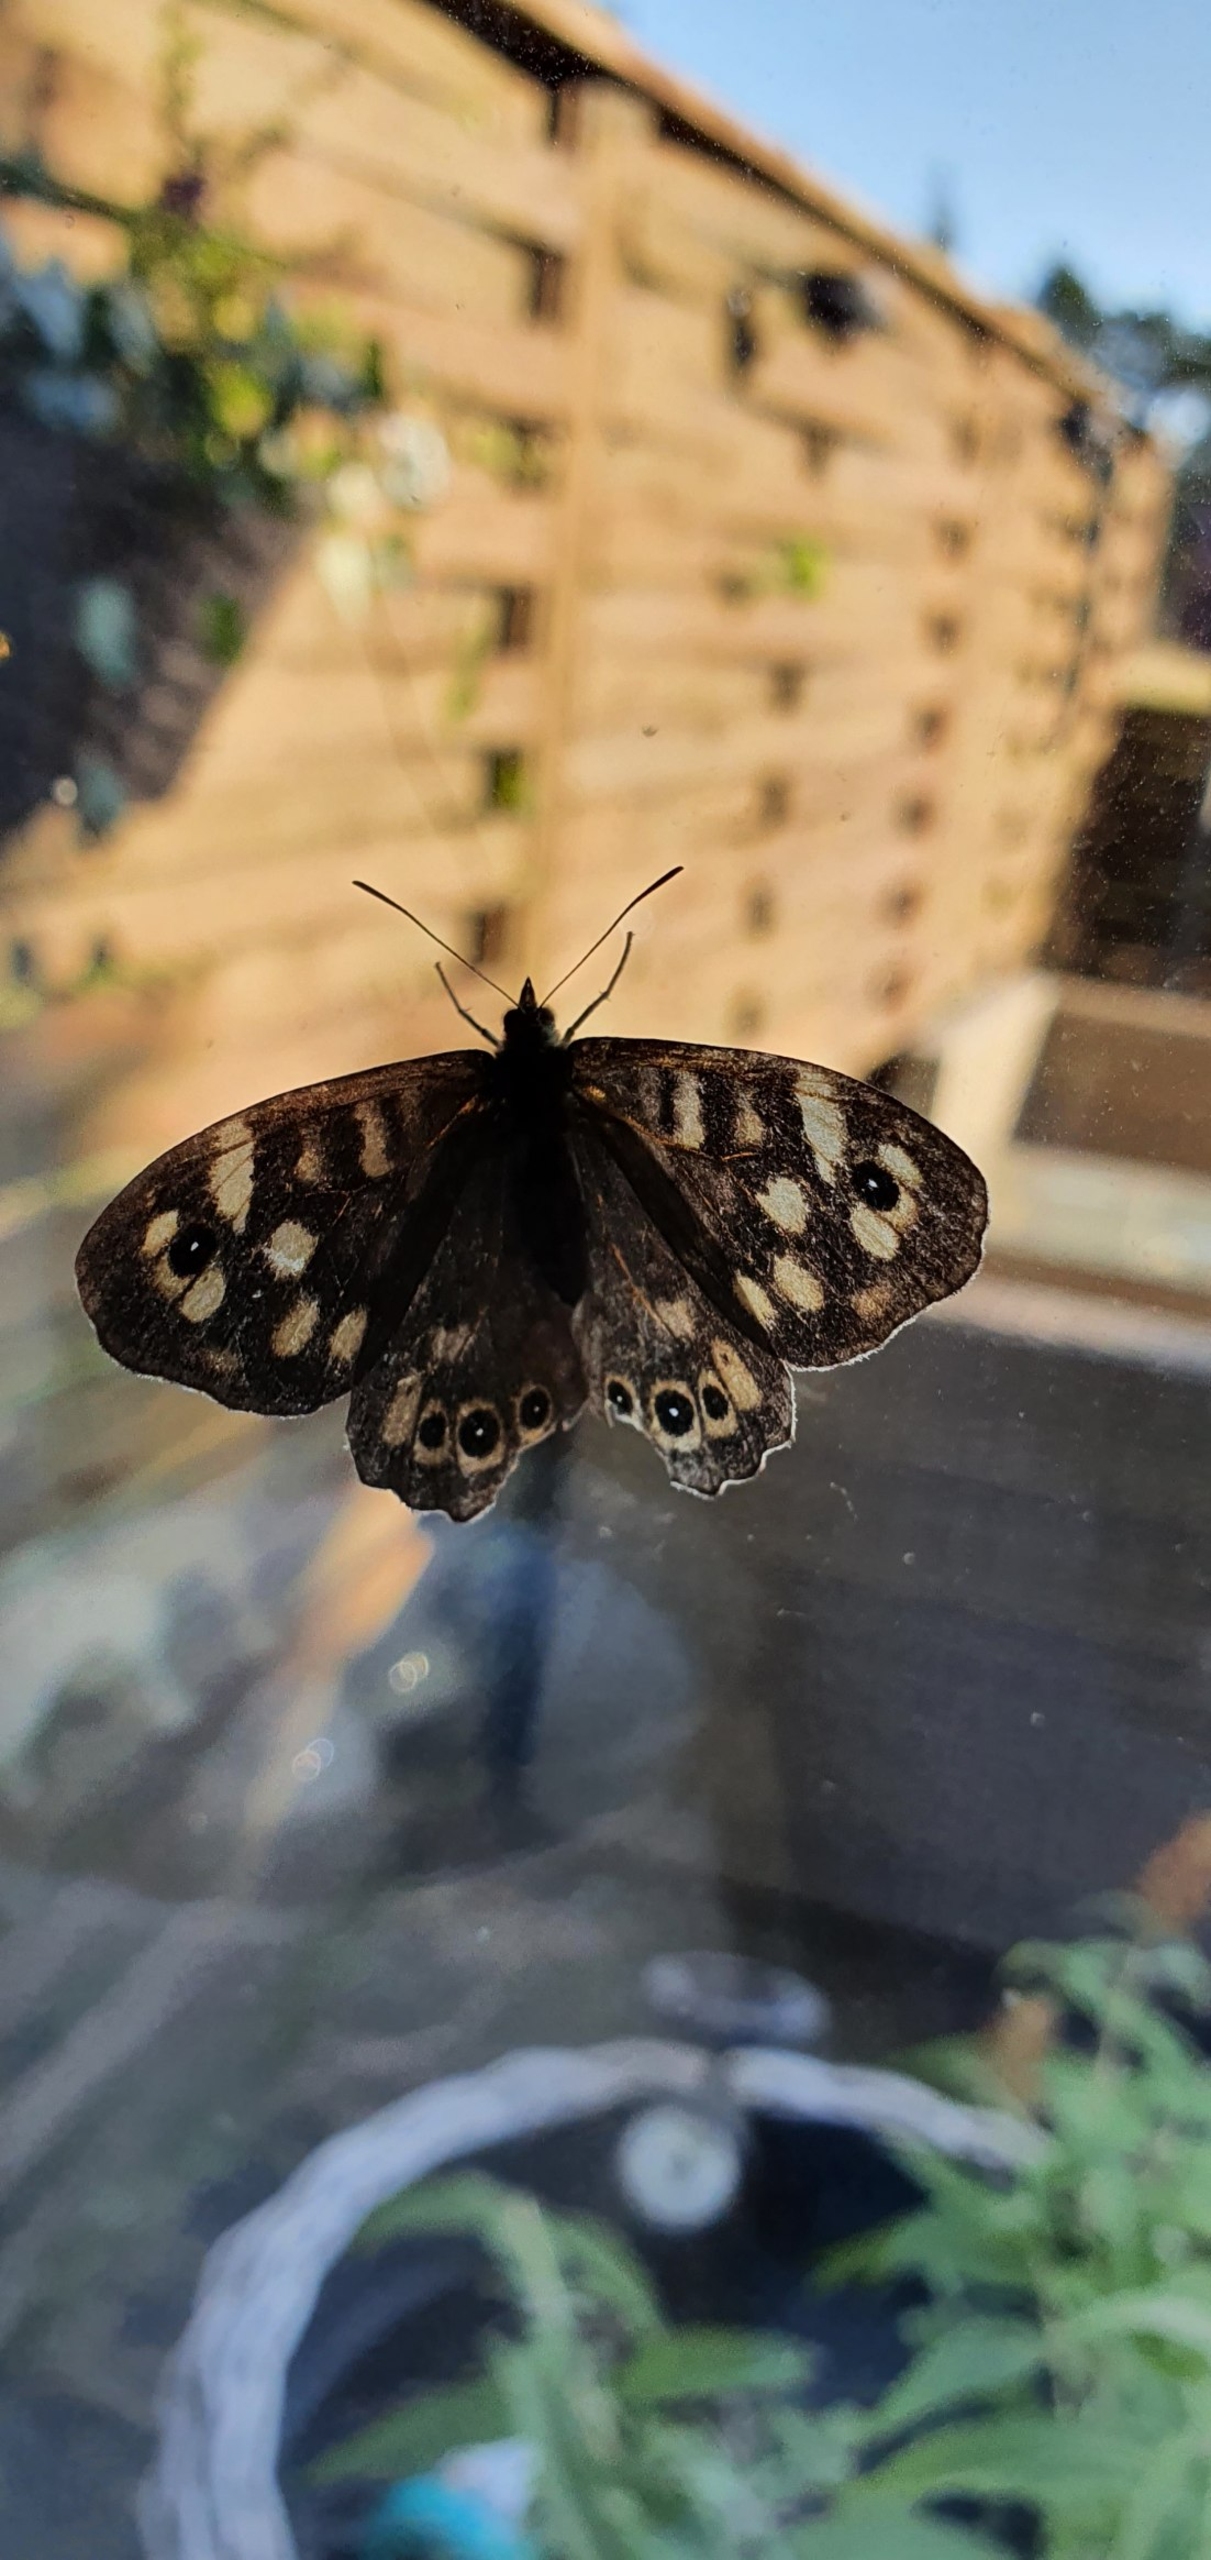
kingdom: Animalia
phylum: Arthropoda
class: Insecta
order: Lepidoptera
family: Nymphalidae
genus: Pararge
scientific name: Pararge aegeria
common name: Skovrandøje
